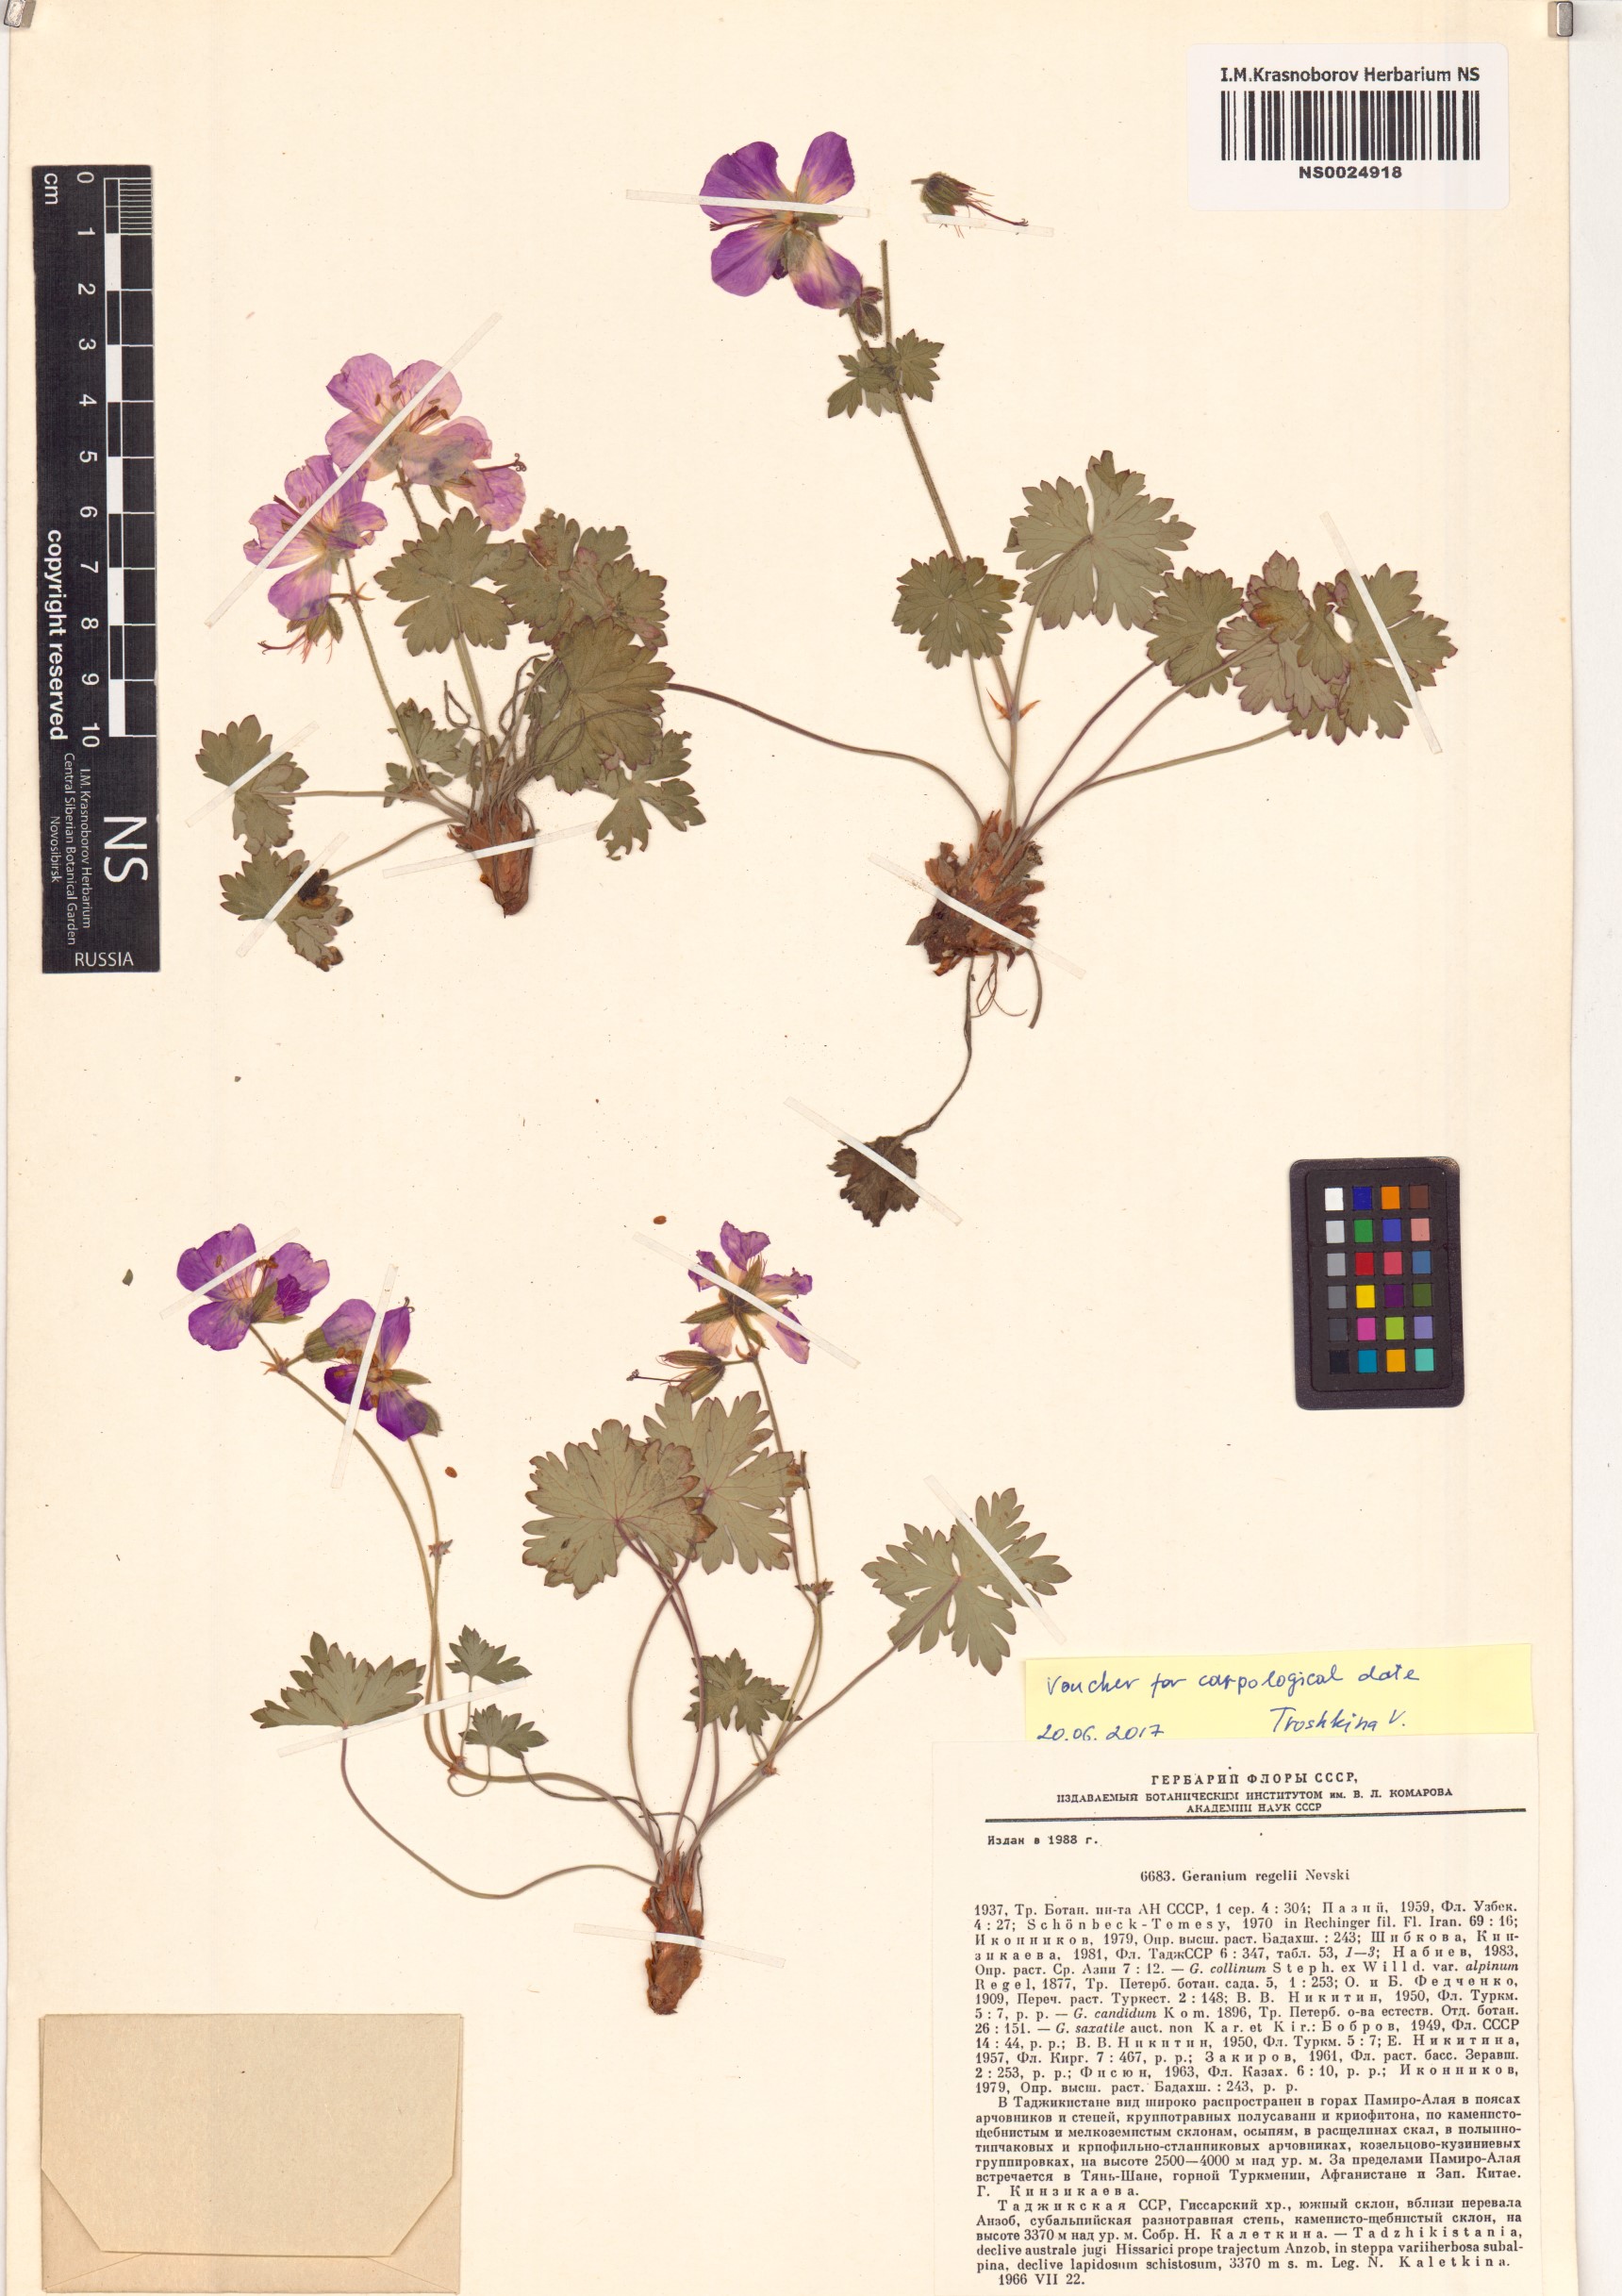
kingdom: Plantae
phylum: Tracheophyta
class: Magnoliopsida
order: Geraniales
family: Geraniaceae
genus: Geranium
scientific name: Geranium saxatile
